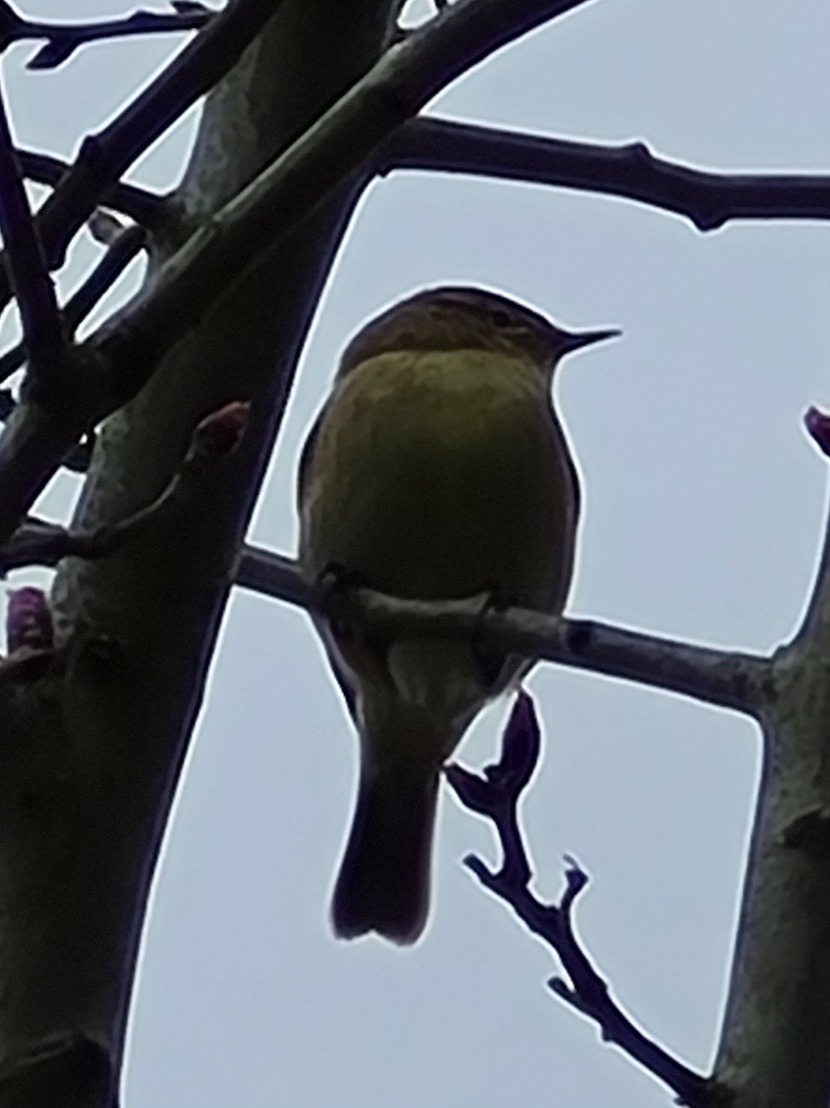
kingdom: Animalia
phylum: Chordata
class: Aves
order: Passeriformes
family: Phylloscopidae
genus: Phylloscopus
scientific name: Phylloscopus collybita
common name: Gransanger
